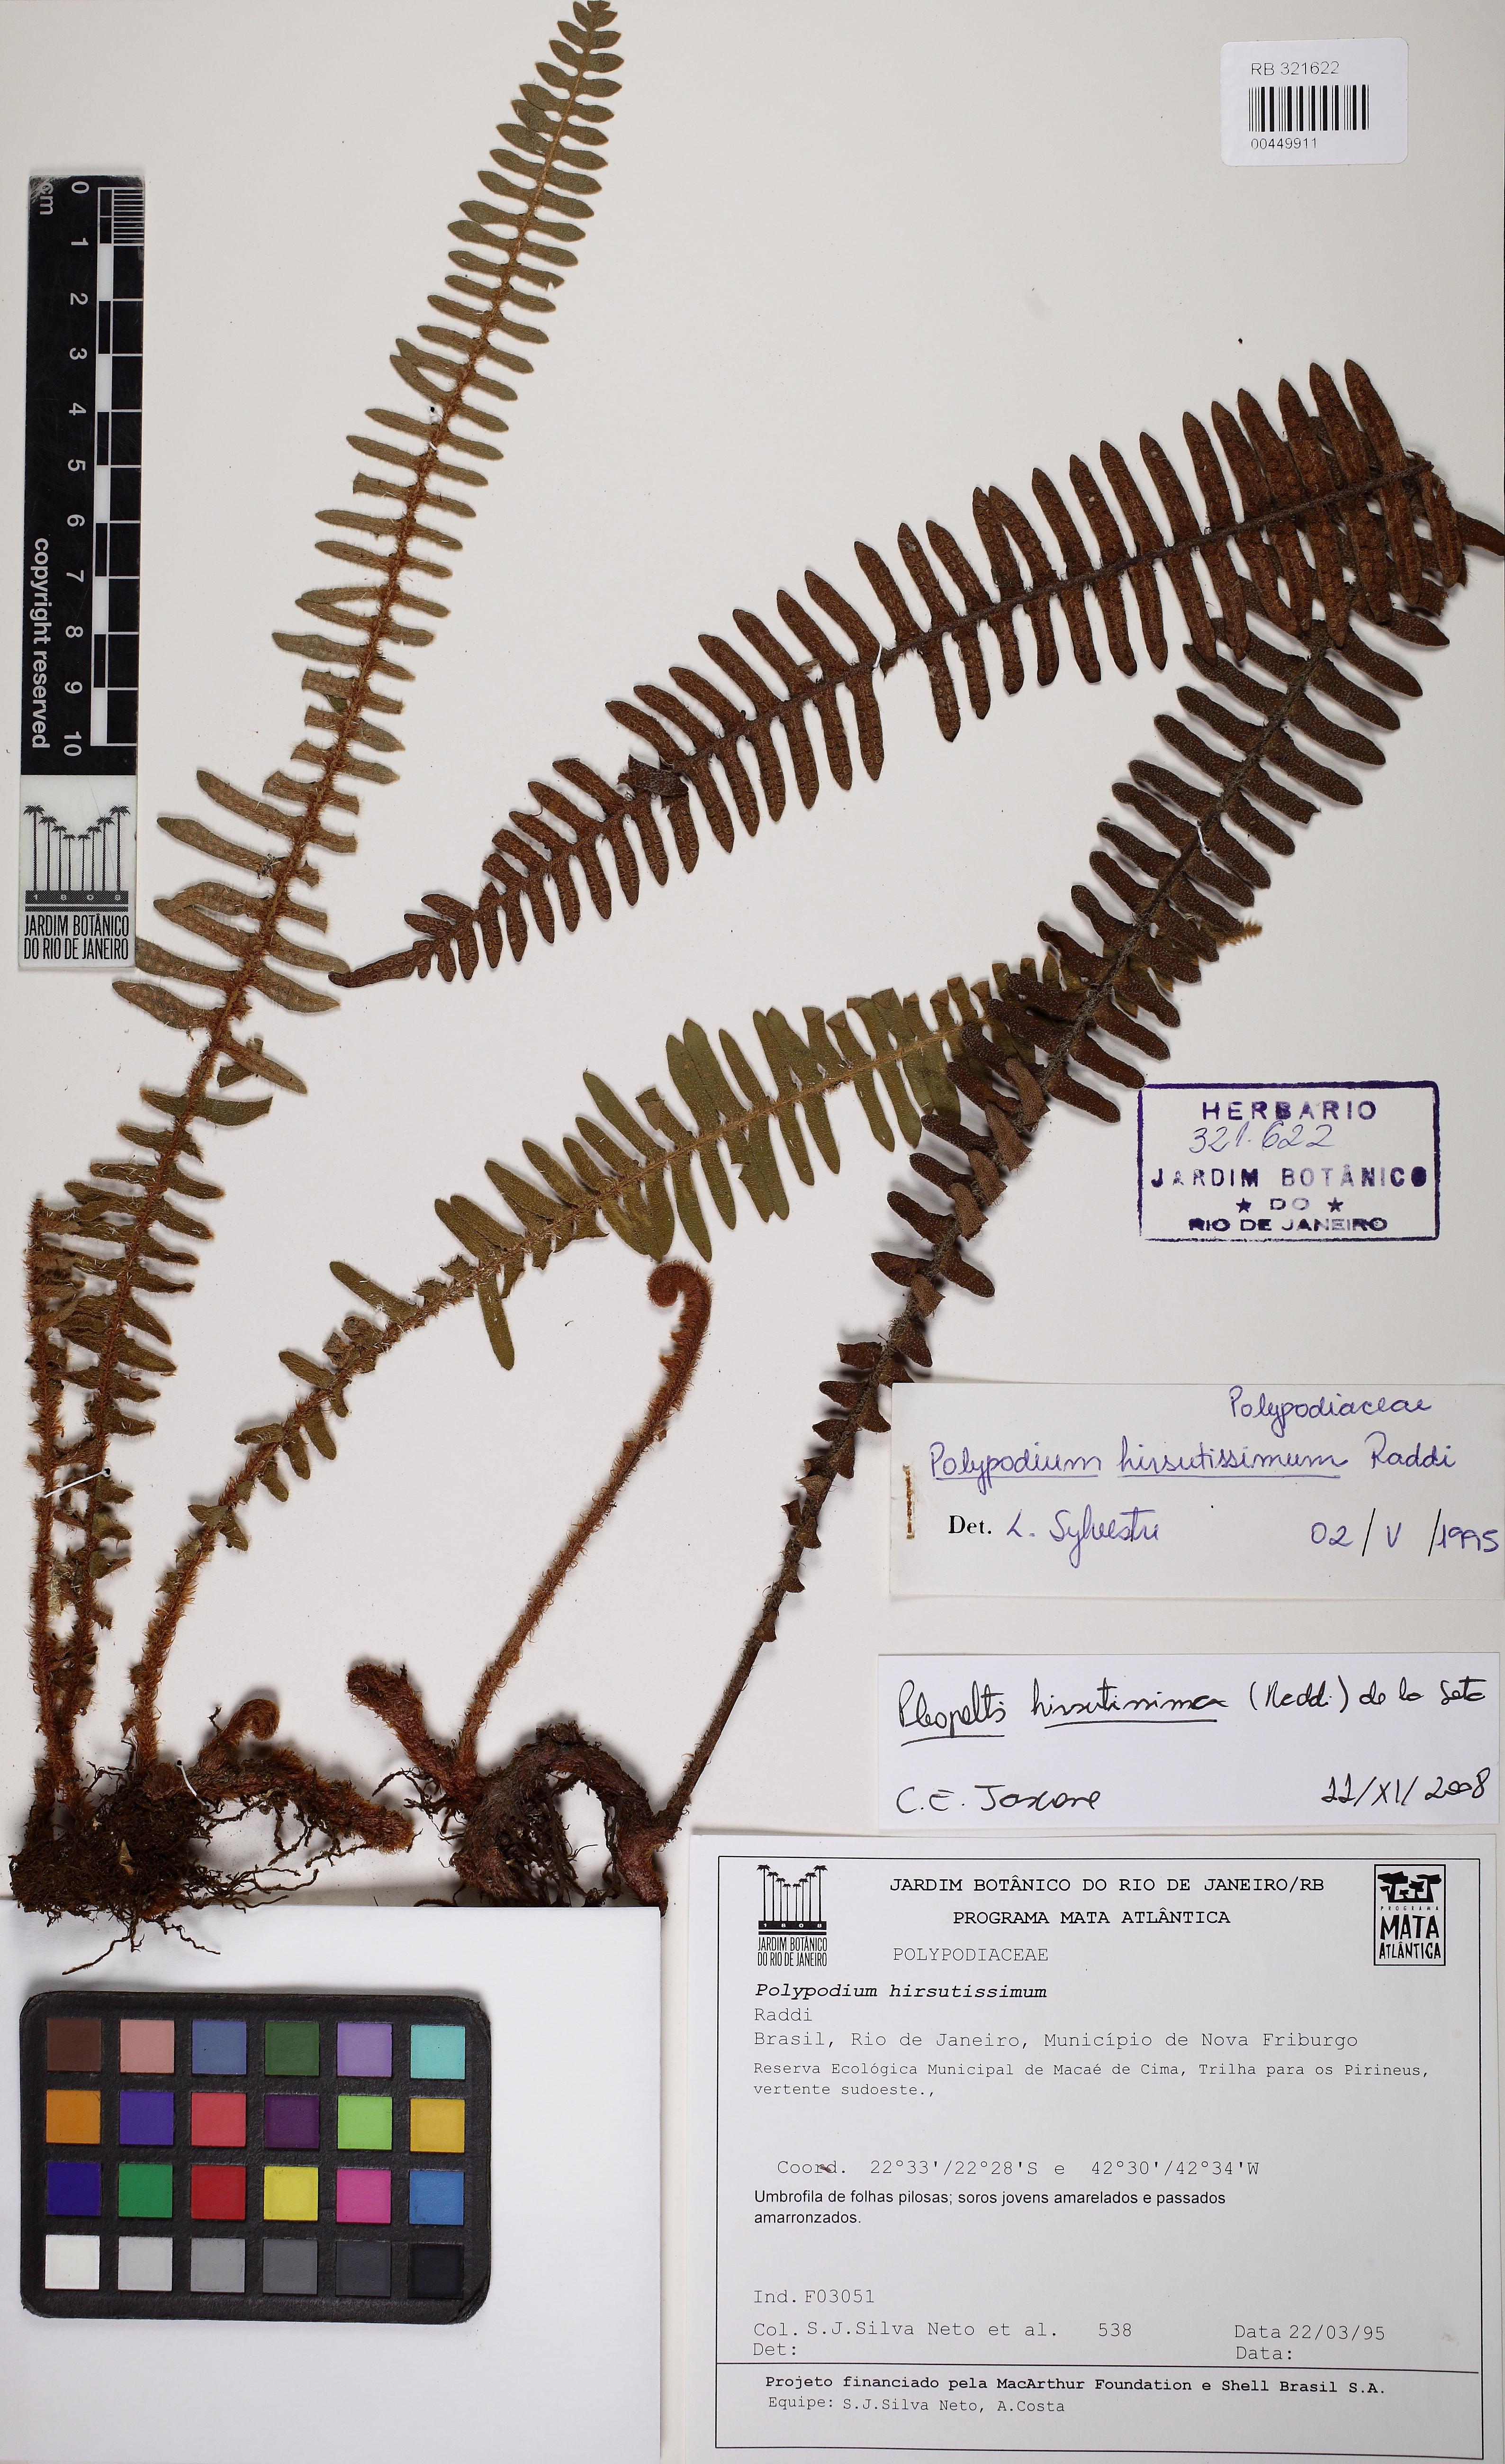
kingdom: Plantae
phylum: Tracheophyta
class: Polypodiopsida
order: Polypodiales
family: Polypodiaceae
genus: Pleopeltis
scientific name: Pleopeltis hirsutissima
